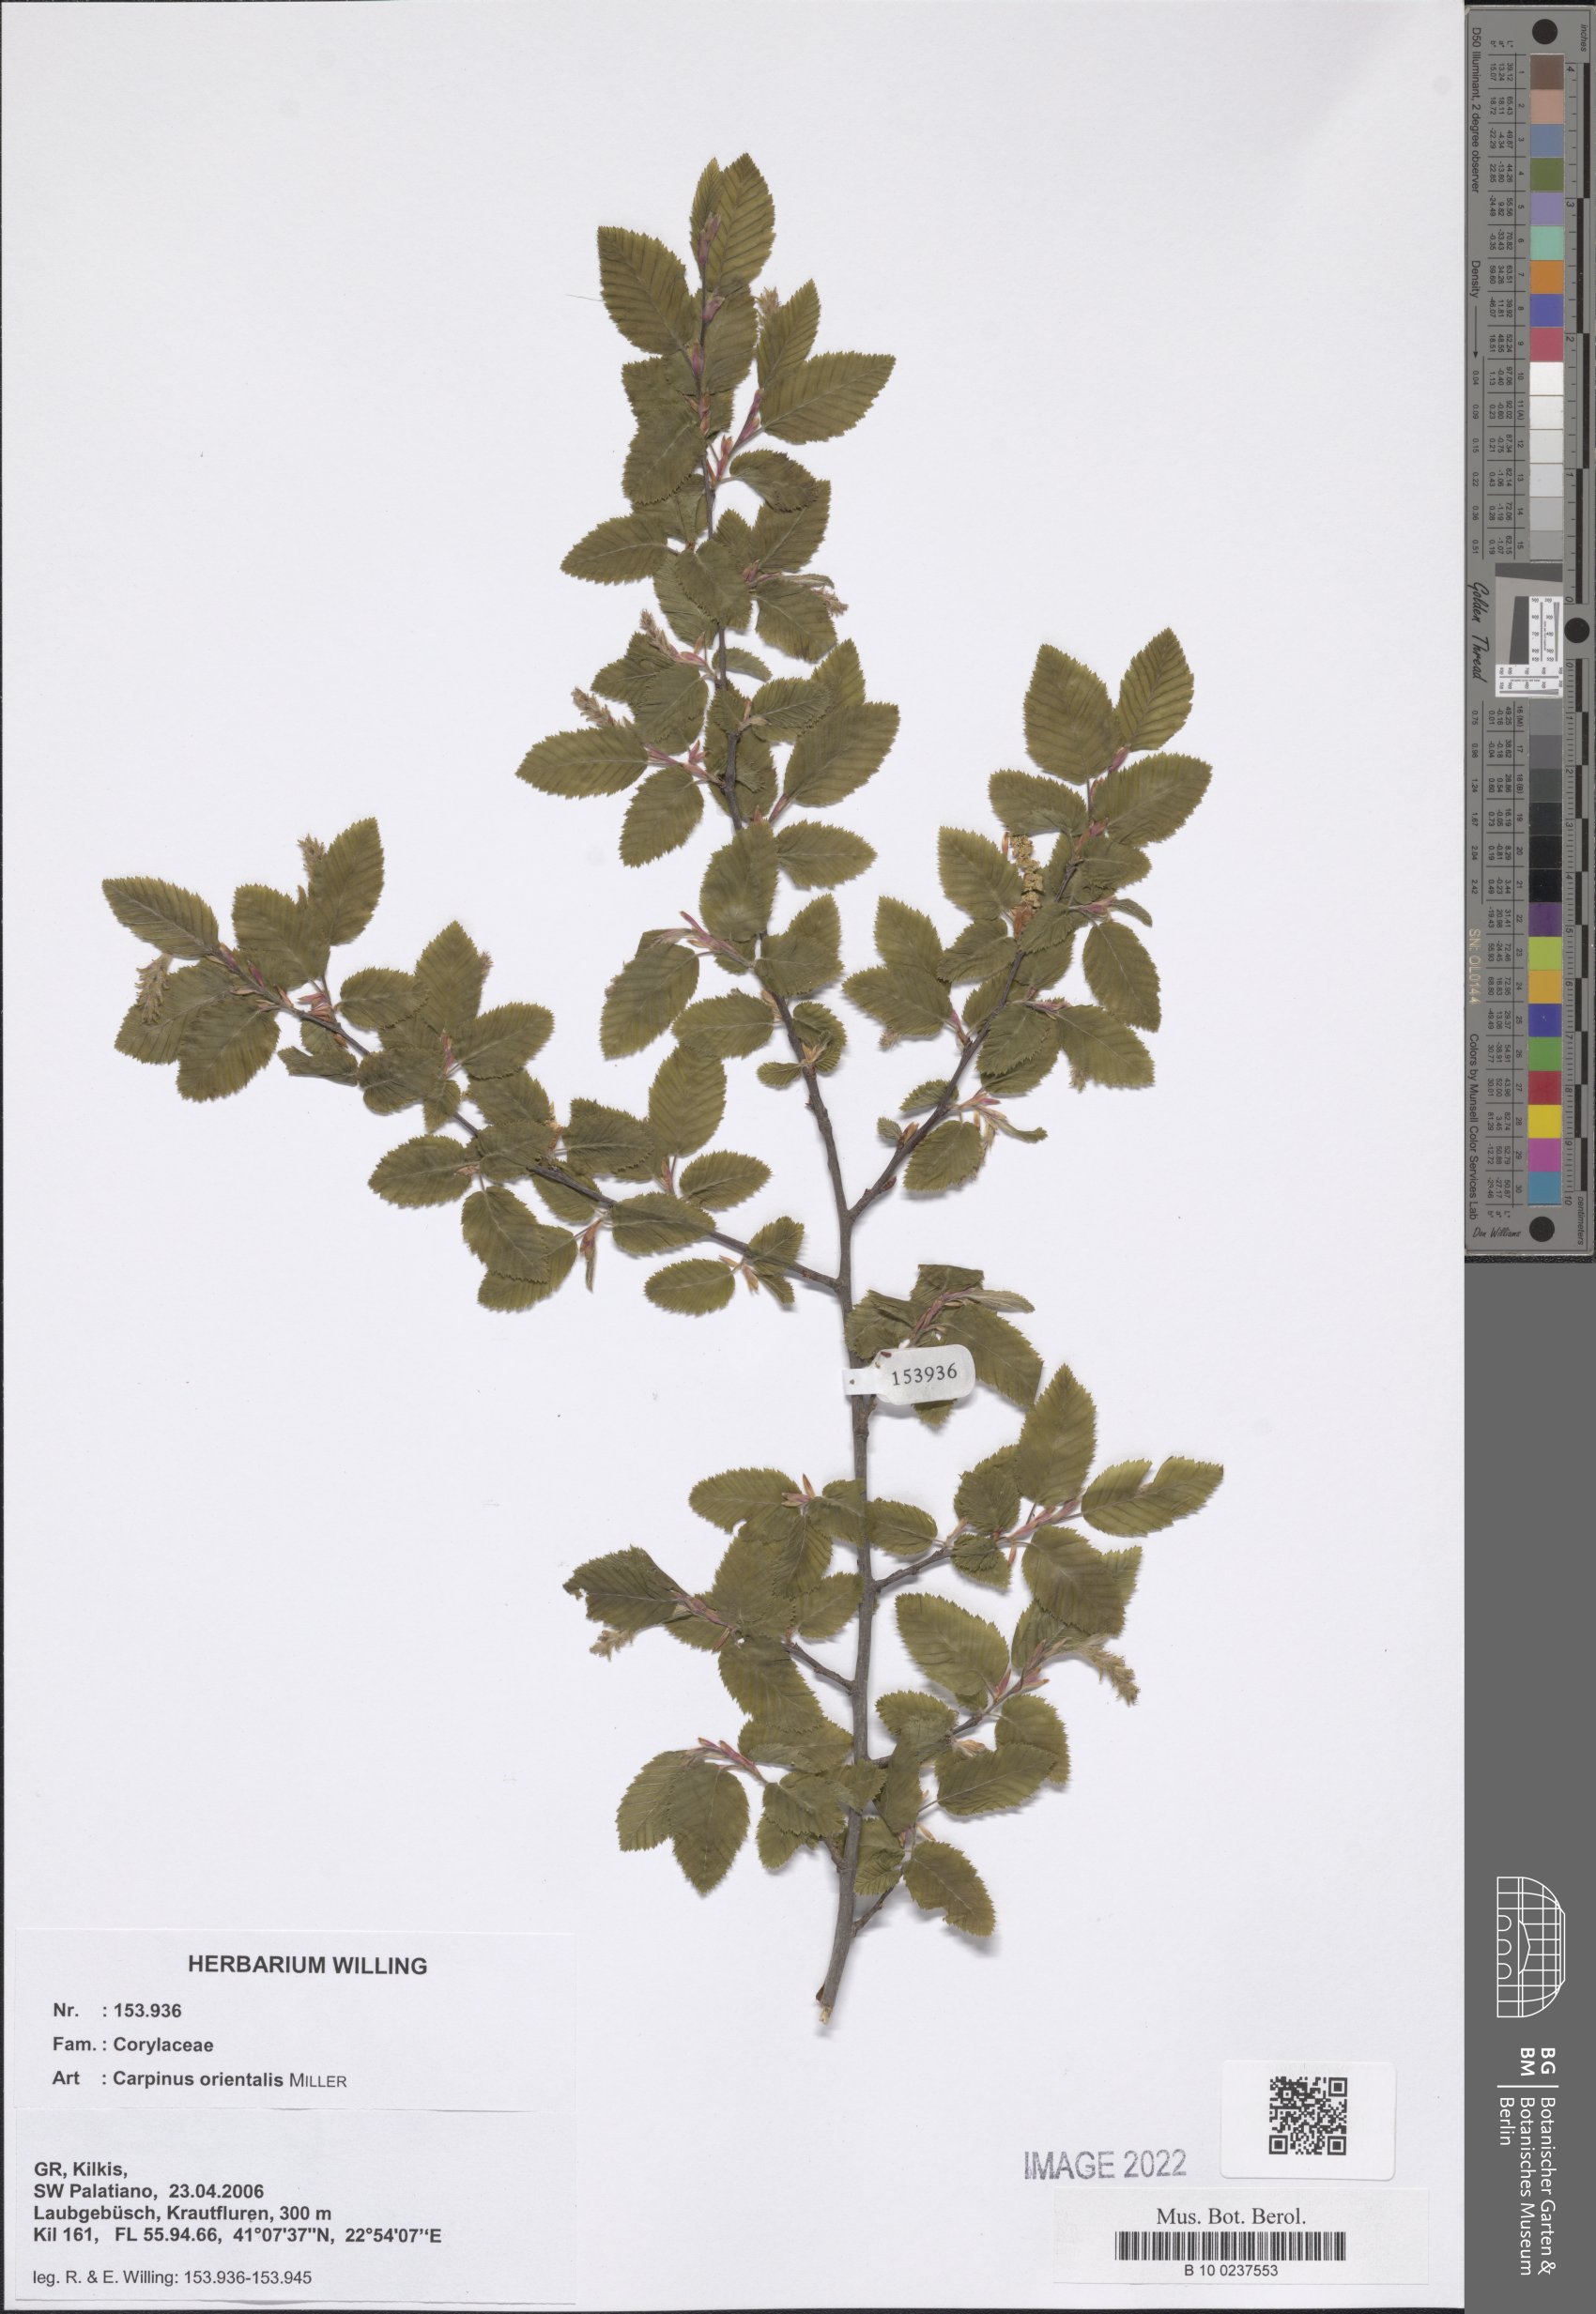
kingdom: Plantae
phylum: Tracheophyta
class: Magnoliopsida
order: Fagales
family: Betulaceae
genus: Carpinus
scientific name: Carpinus orientalis
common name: Eastern hornbeam
